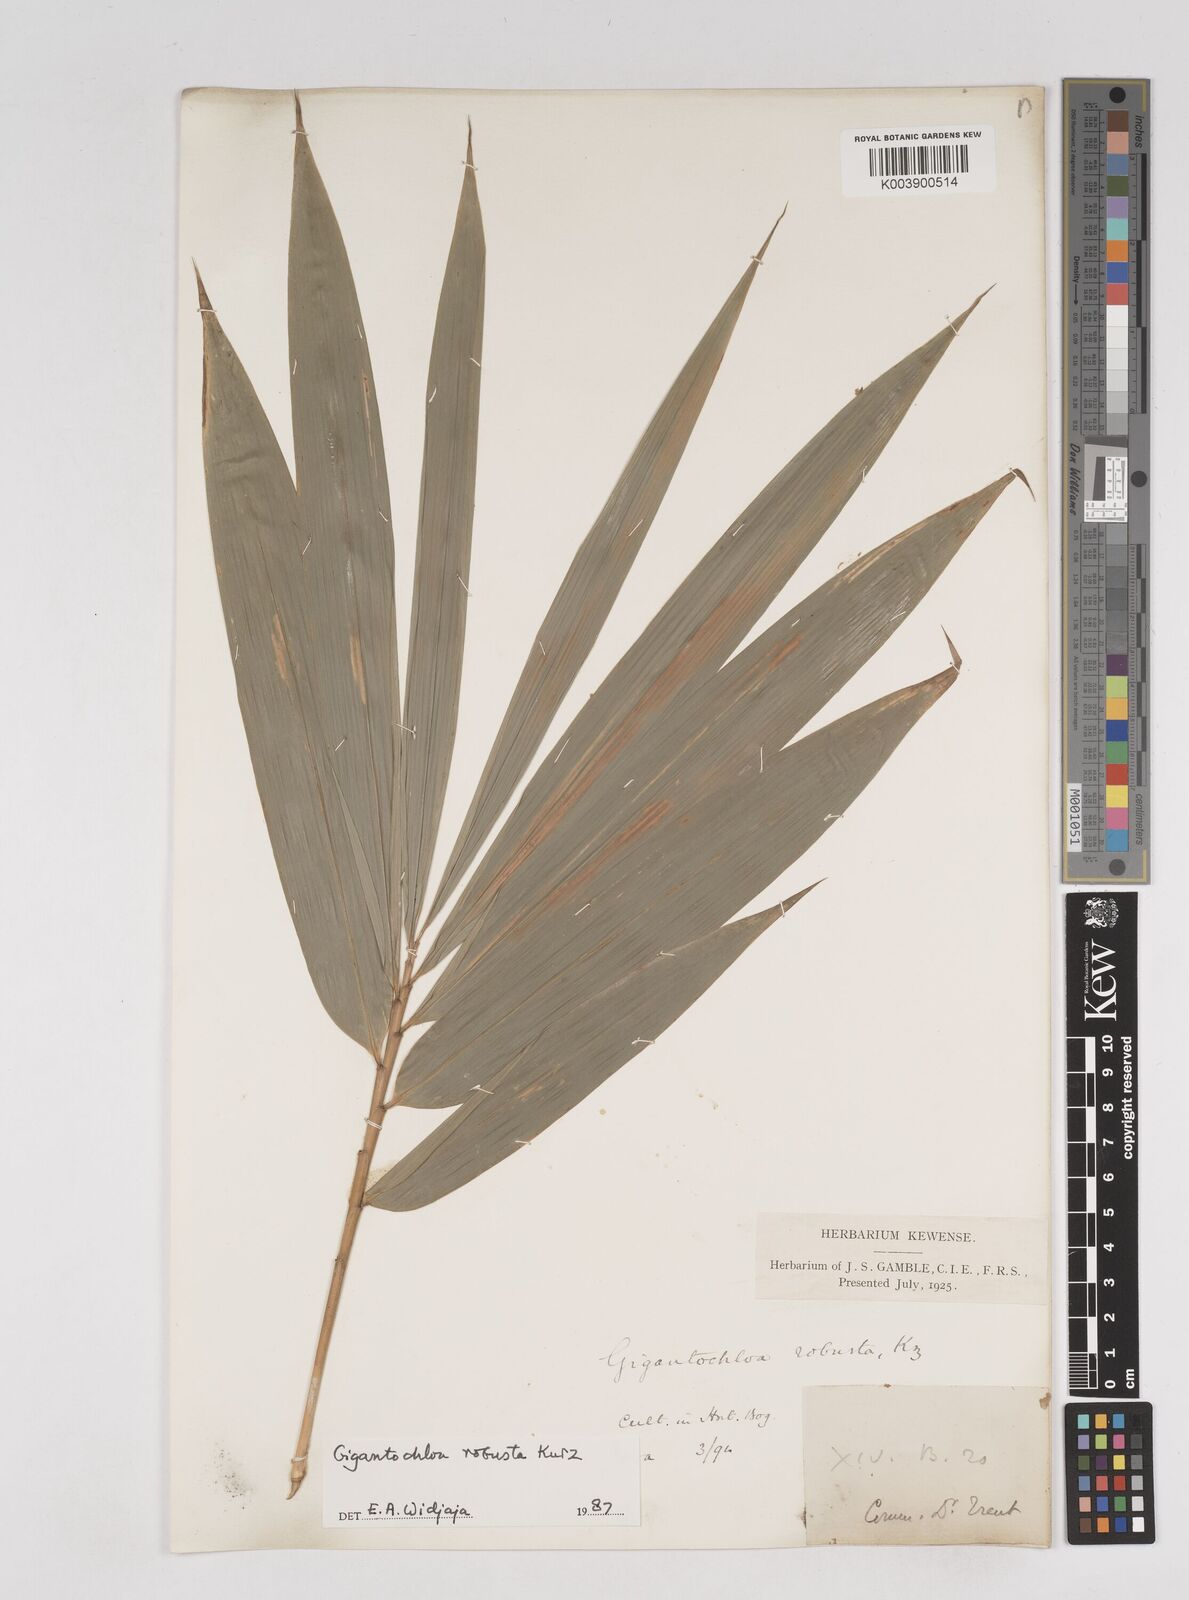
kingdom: Plantae
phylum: Tracheophyta
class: Liliopsida
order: Poales
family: Poaceae
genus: Gigantochloa
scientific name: Gigantochloa robusta
